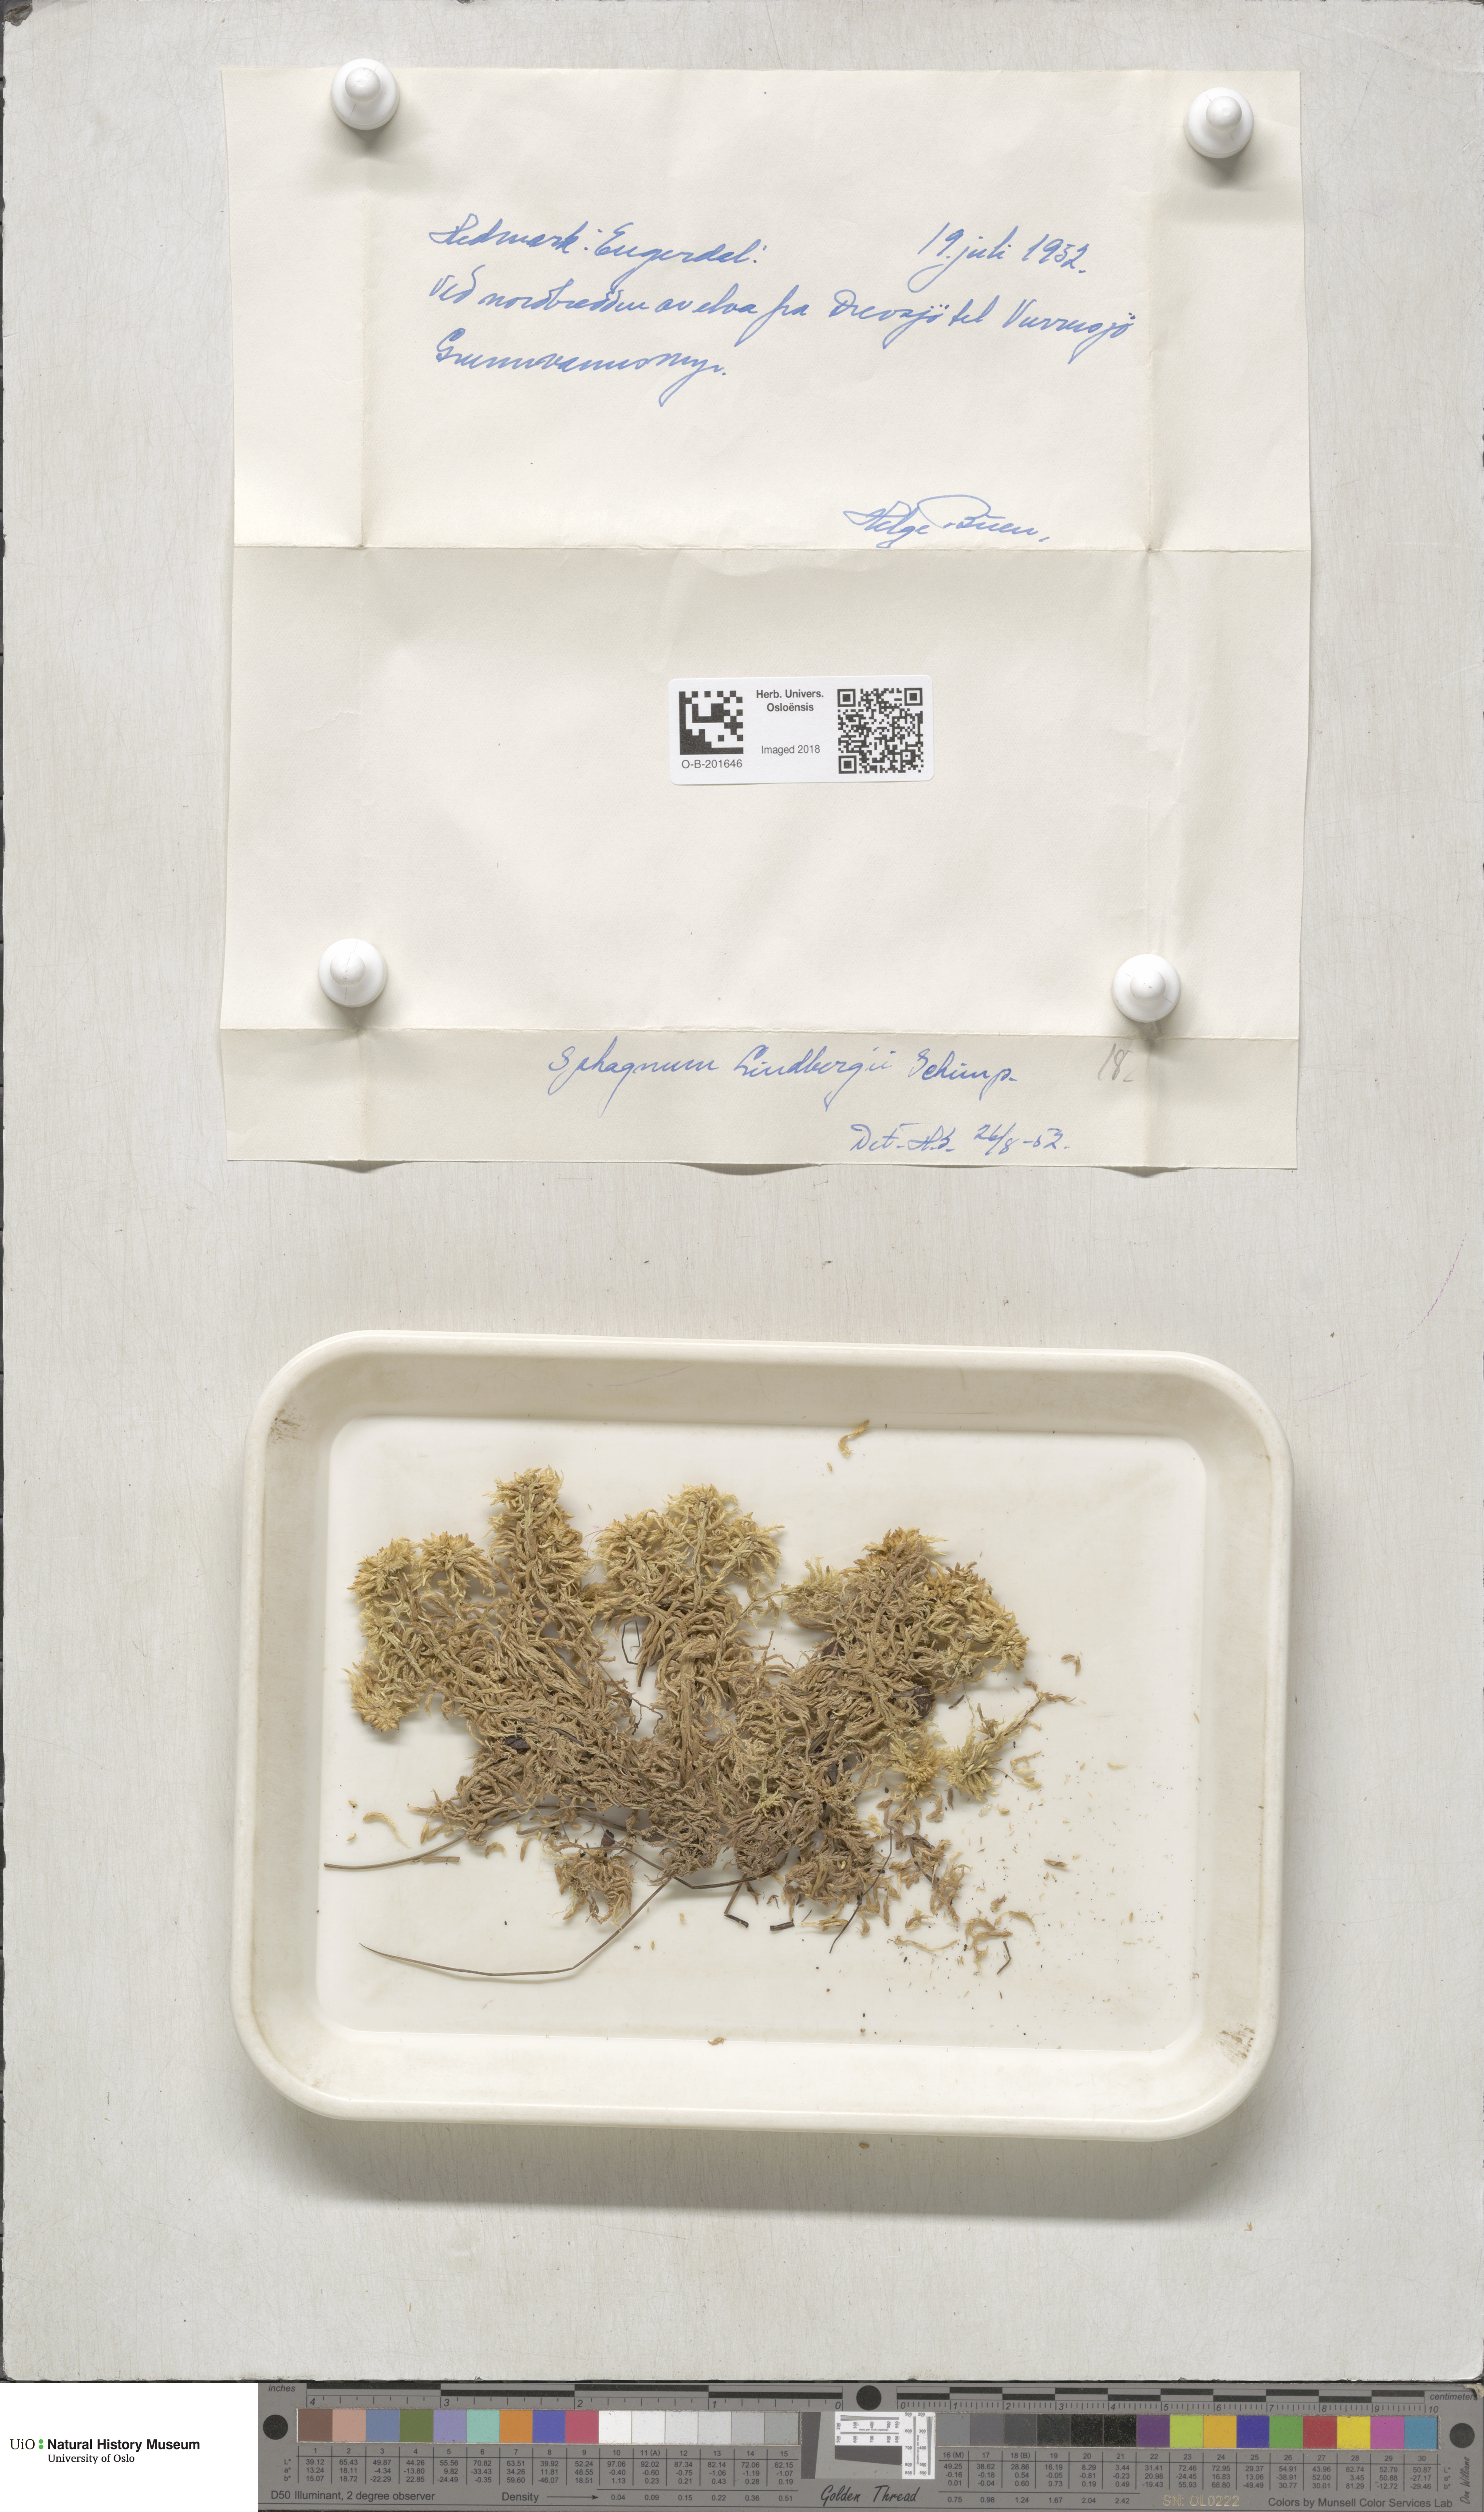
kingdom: Plantae
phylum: Bryophyta
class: Sphagnopsida
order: Sphagnales
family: Sphagnaceae
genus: Sphagnum
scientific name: Sphagnum lindbergii
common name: Lindberg's peat moss
